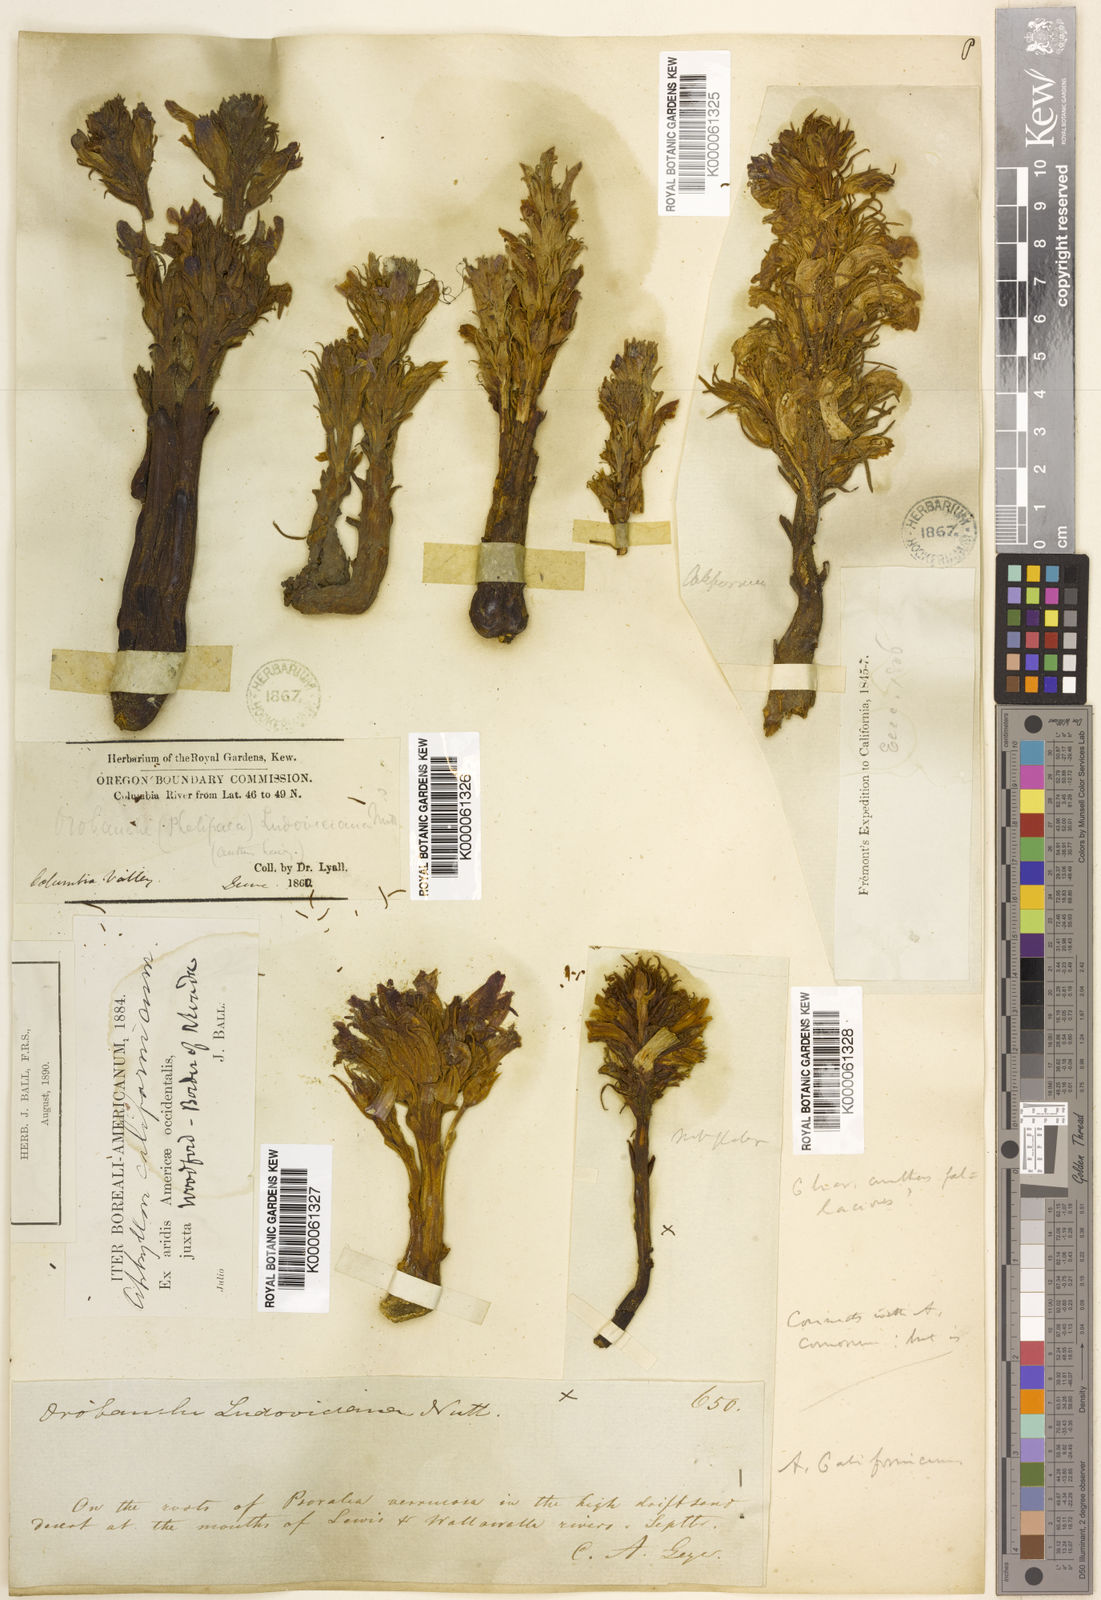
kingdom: Plantae
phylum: Tracheophyta
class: Magnoliopsida
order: Lamiales
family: Orobanchaceae
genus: Aphyllon
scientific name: Aphyllon californicum
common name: California broomrape
